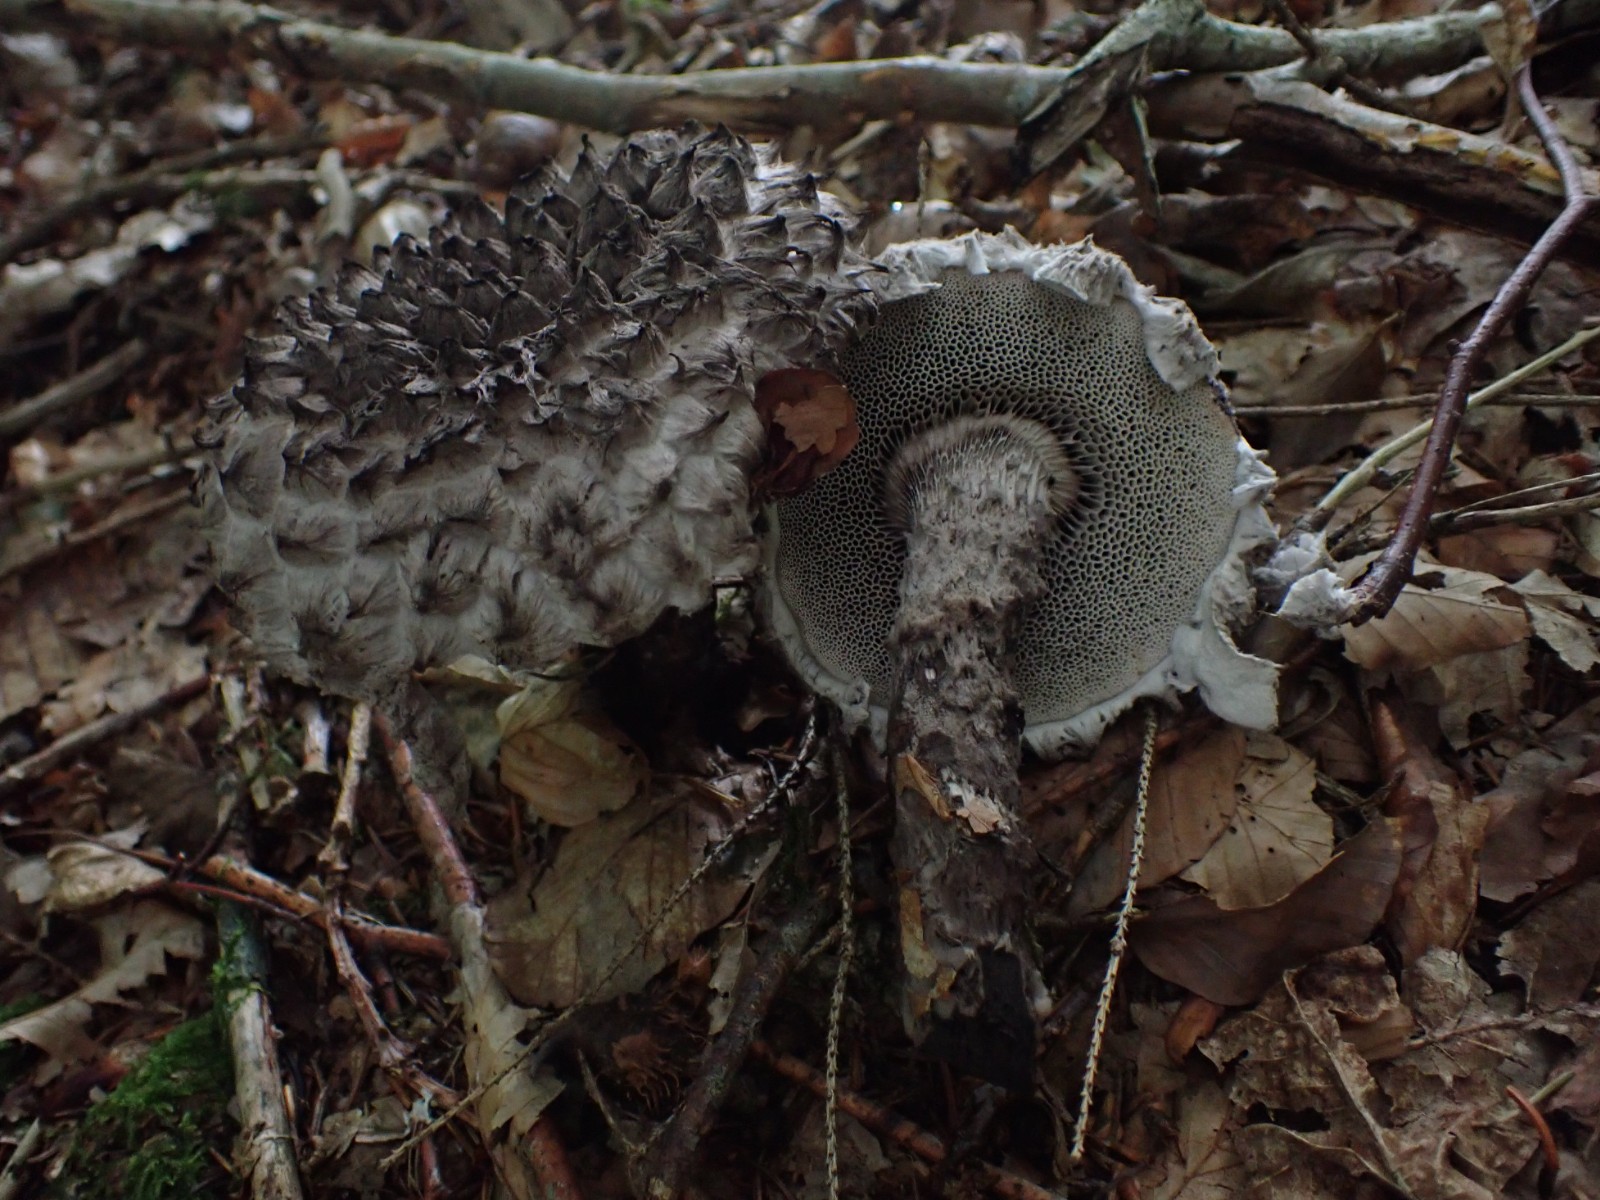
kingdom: Fungi
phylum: Basidiomycota
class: Agaricomycetes
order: Boletales
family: Boletaceae
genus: Strobilomyces
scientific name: Strobilomyces strobilaceus
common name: koglerørhat
